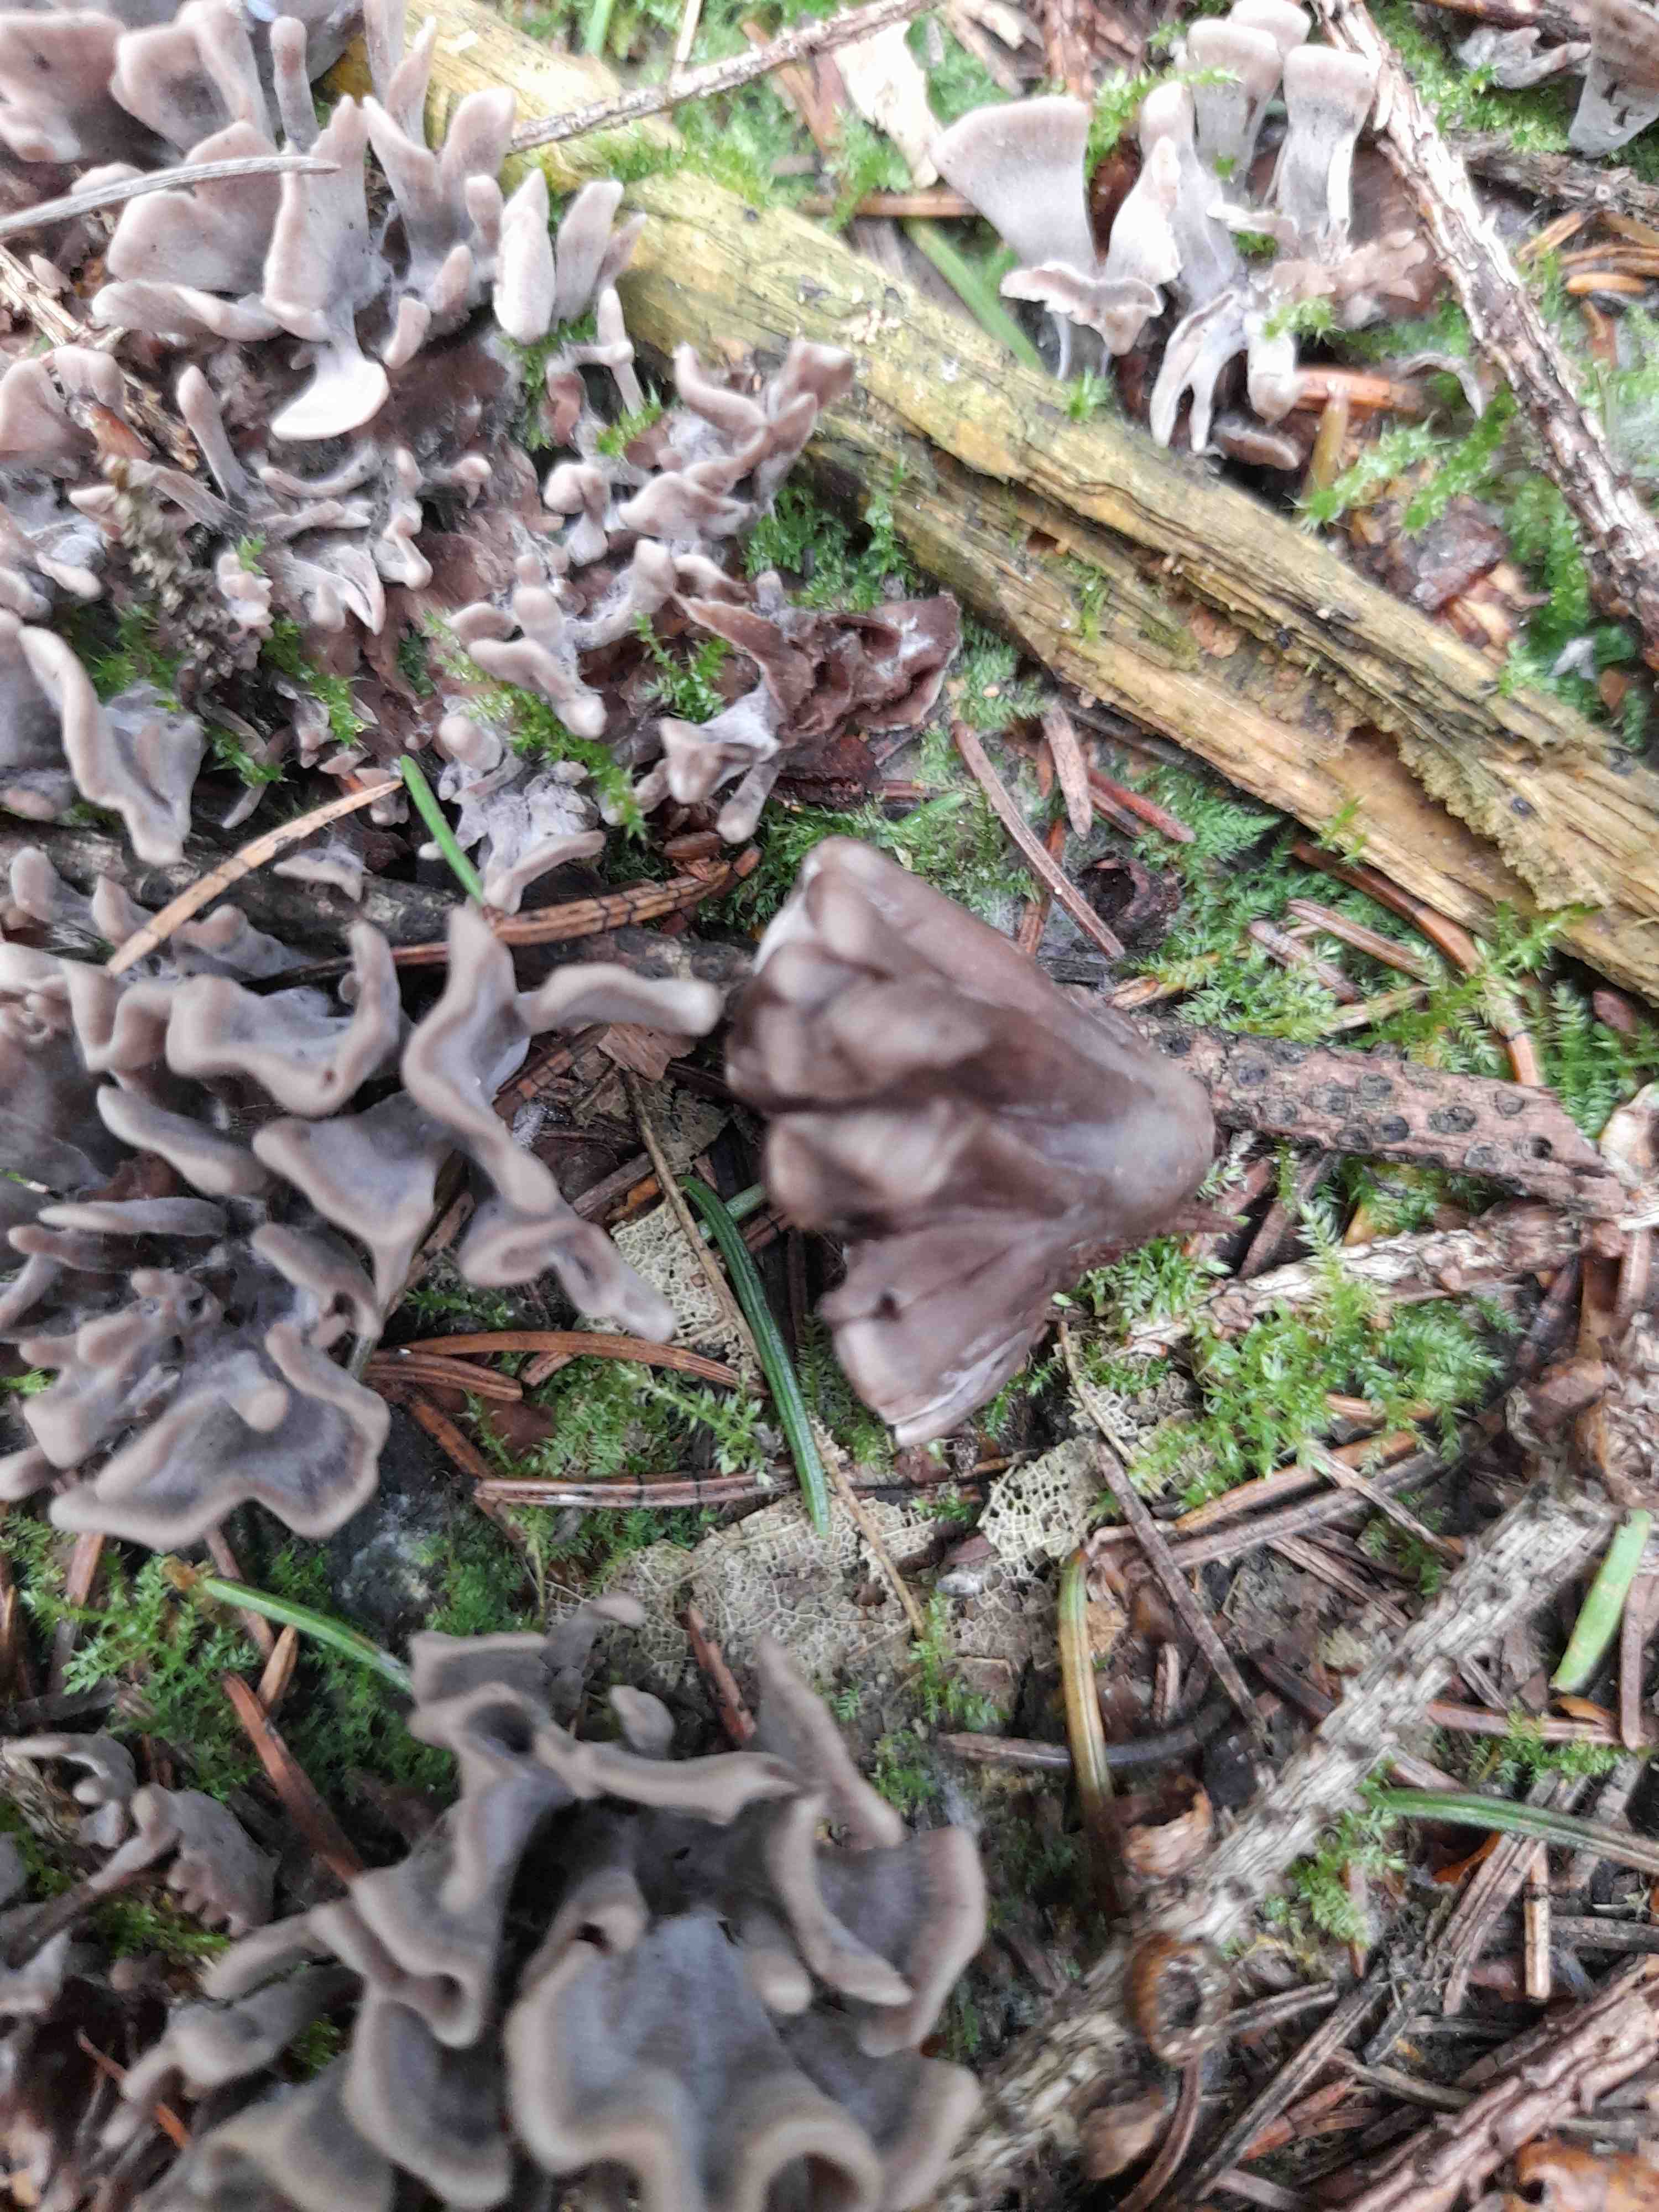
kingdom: Fungi
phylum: Basidiomycota
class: Agaricomycetes
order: Thelephorales
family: Thelephoraceae
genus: Thelephora
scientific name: Thelephora palmata
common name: grenet frynsesvamp
